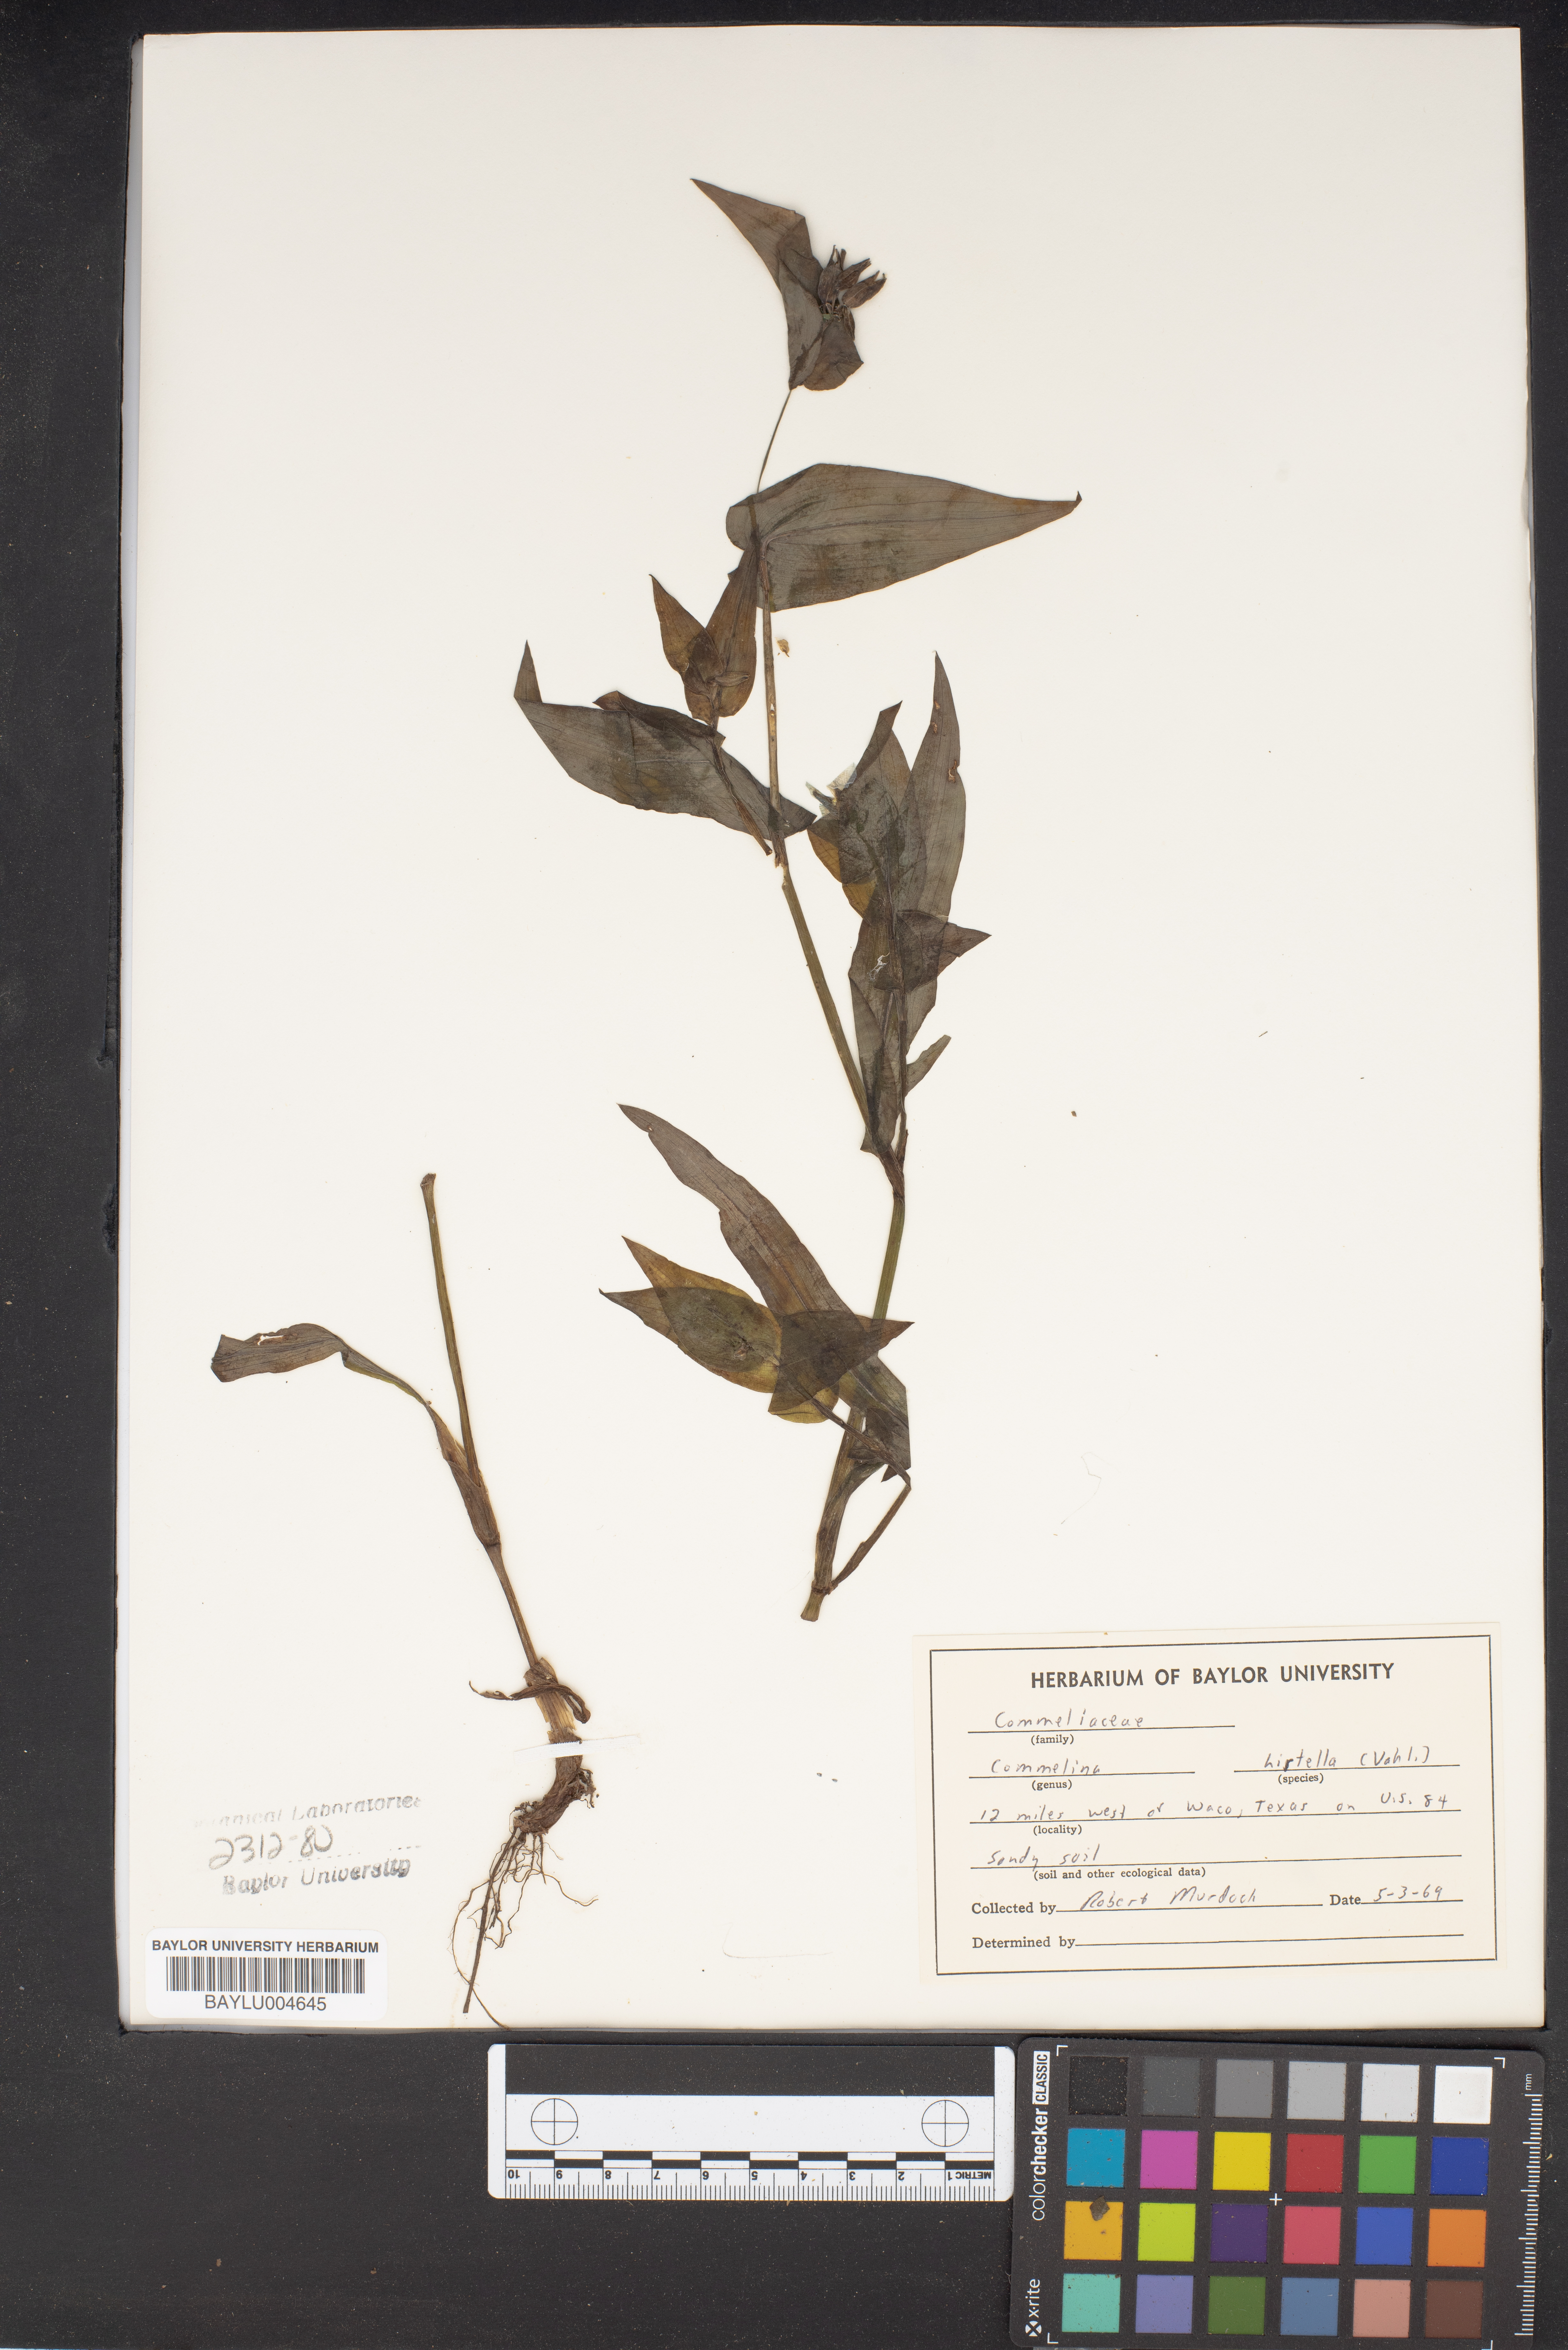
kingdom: Plantae
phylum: Tracheophyta
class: Liliopsida
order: Commelinales
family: Commelinaceae
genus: Commelina
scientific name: Commelina virginica
